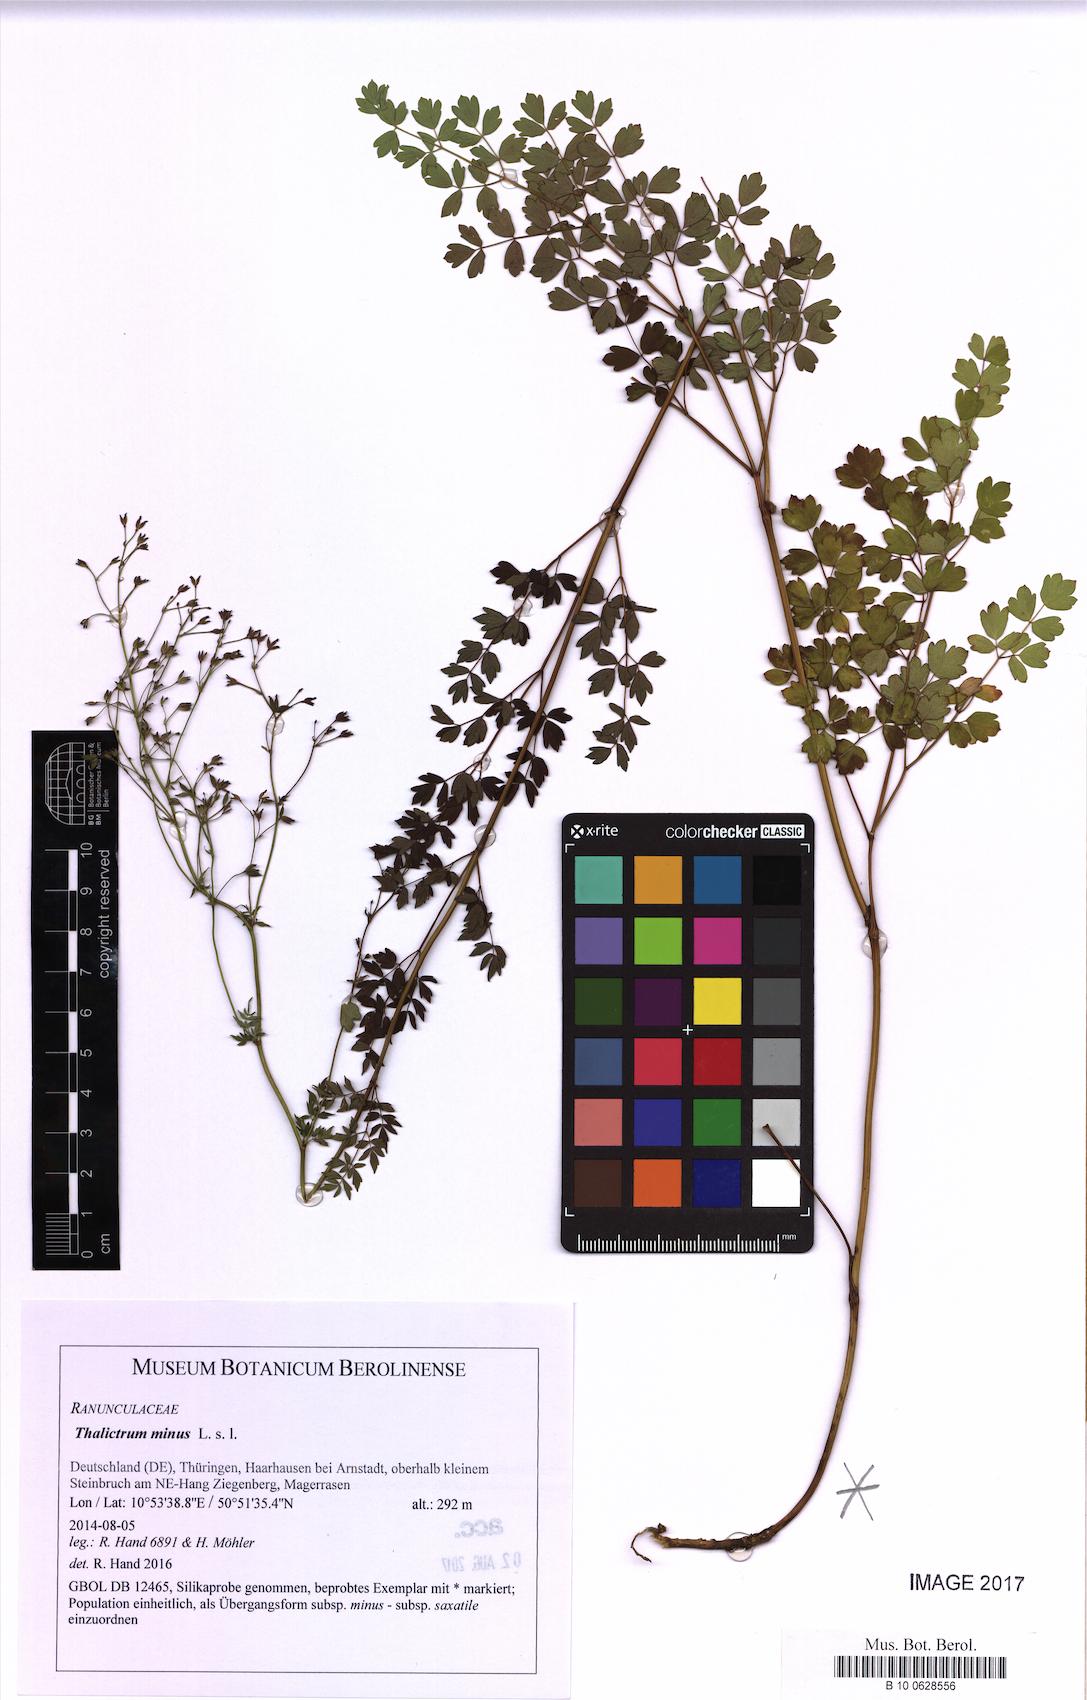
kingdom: Plantae
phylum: Tracheophyta
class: Magnoliopsida
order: Ranunculales
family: Ranunculaceae
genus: Thalictrum
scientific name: Thalictrum minus
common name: Lesser meadow-rue
